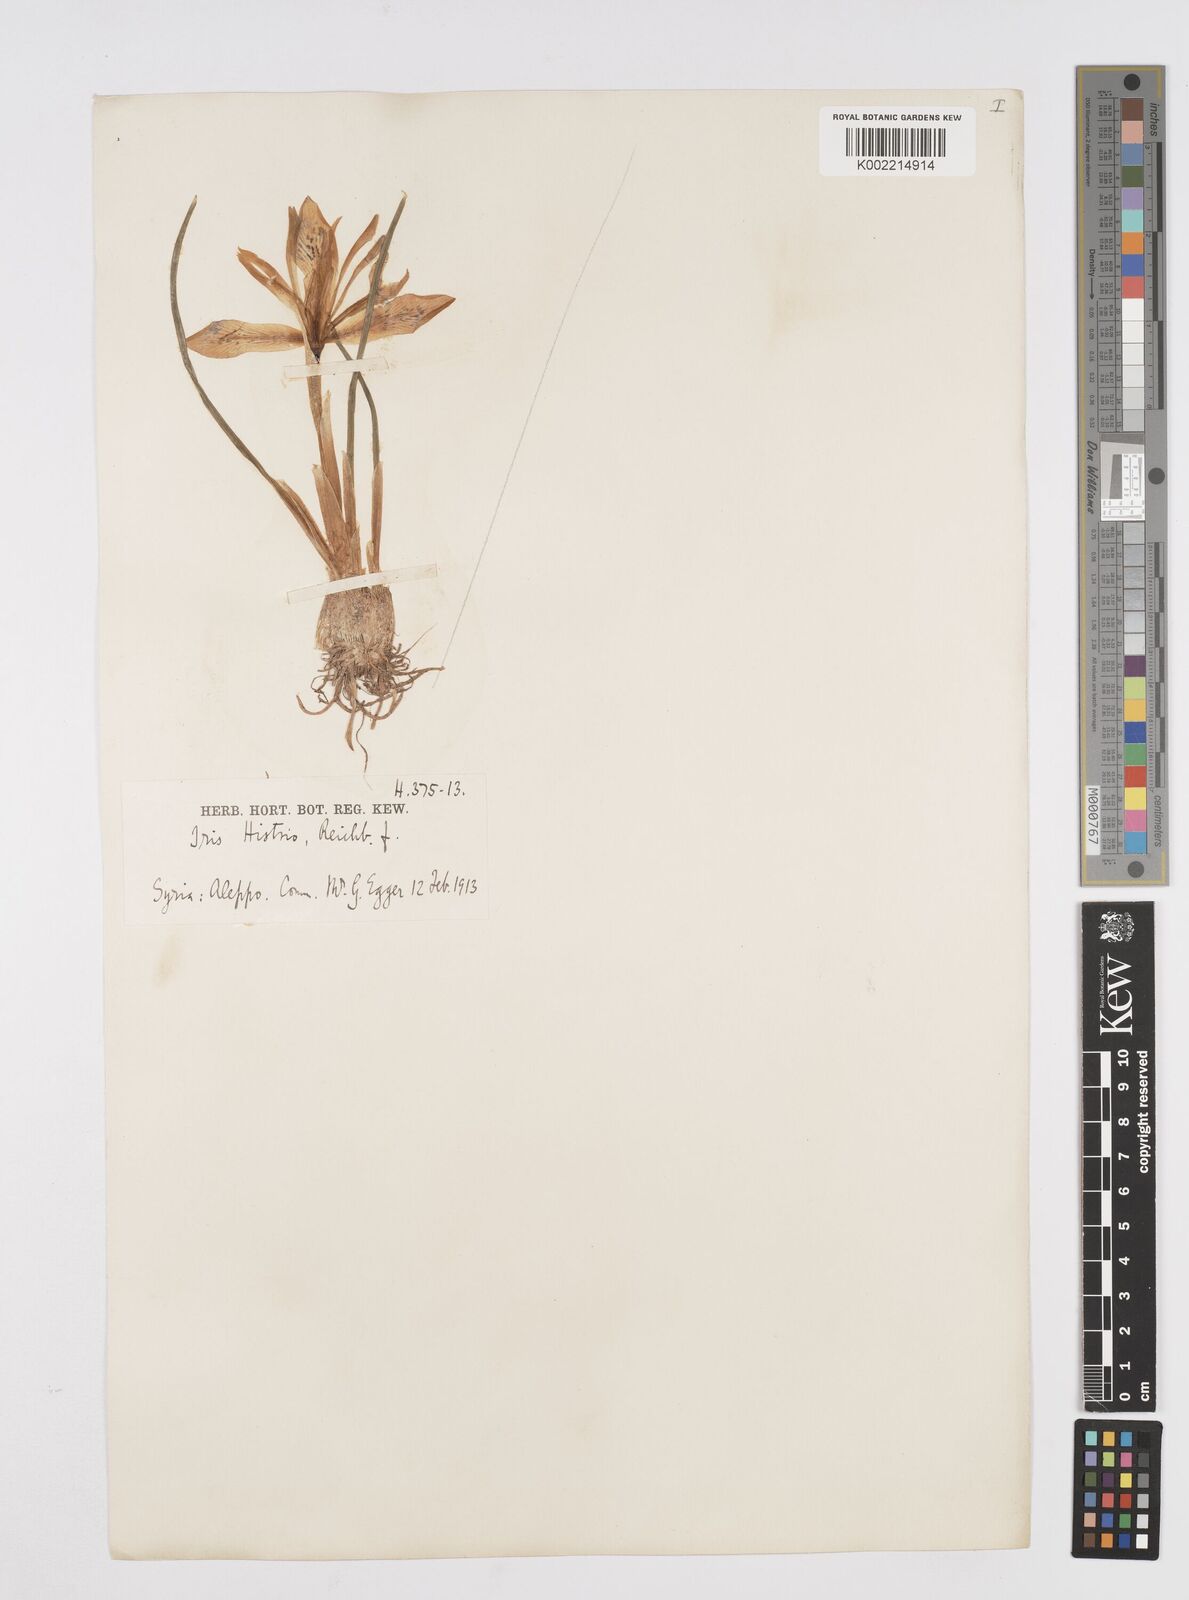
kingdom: Plantae
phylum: Tracheophyta
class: Liliopsida
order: Asparagales
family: Iridaceae
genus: Iris
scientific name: Iris histrio
